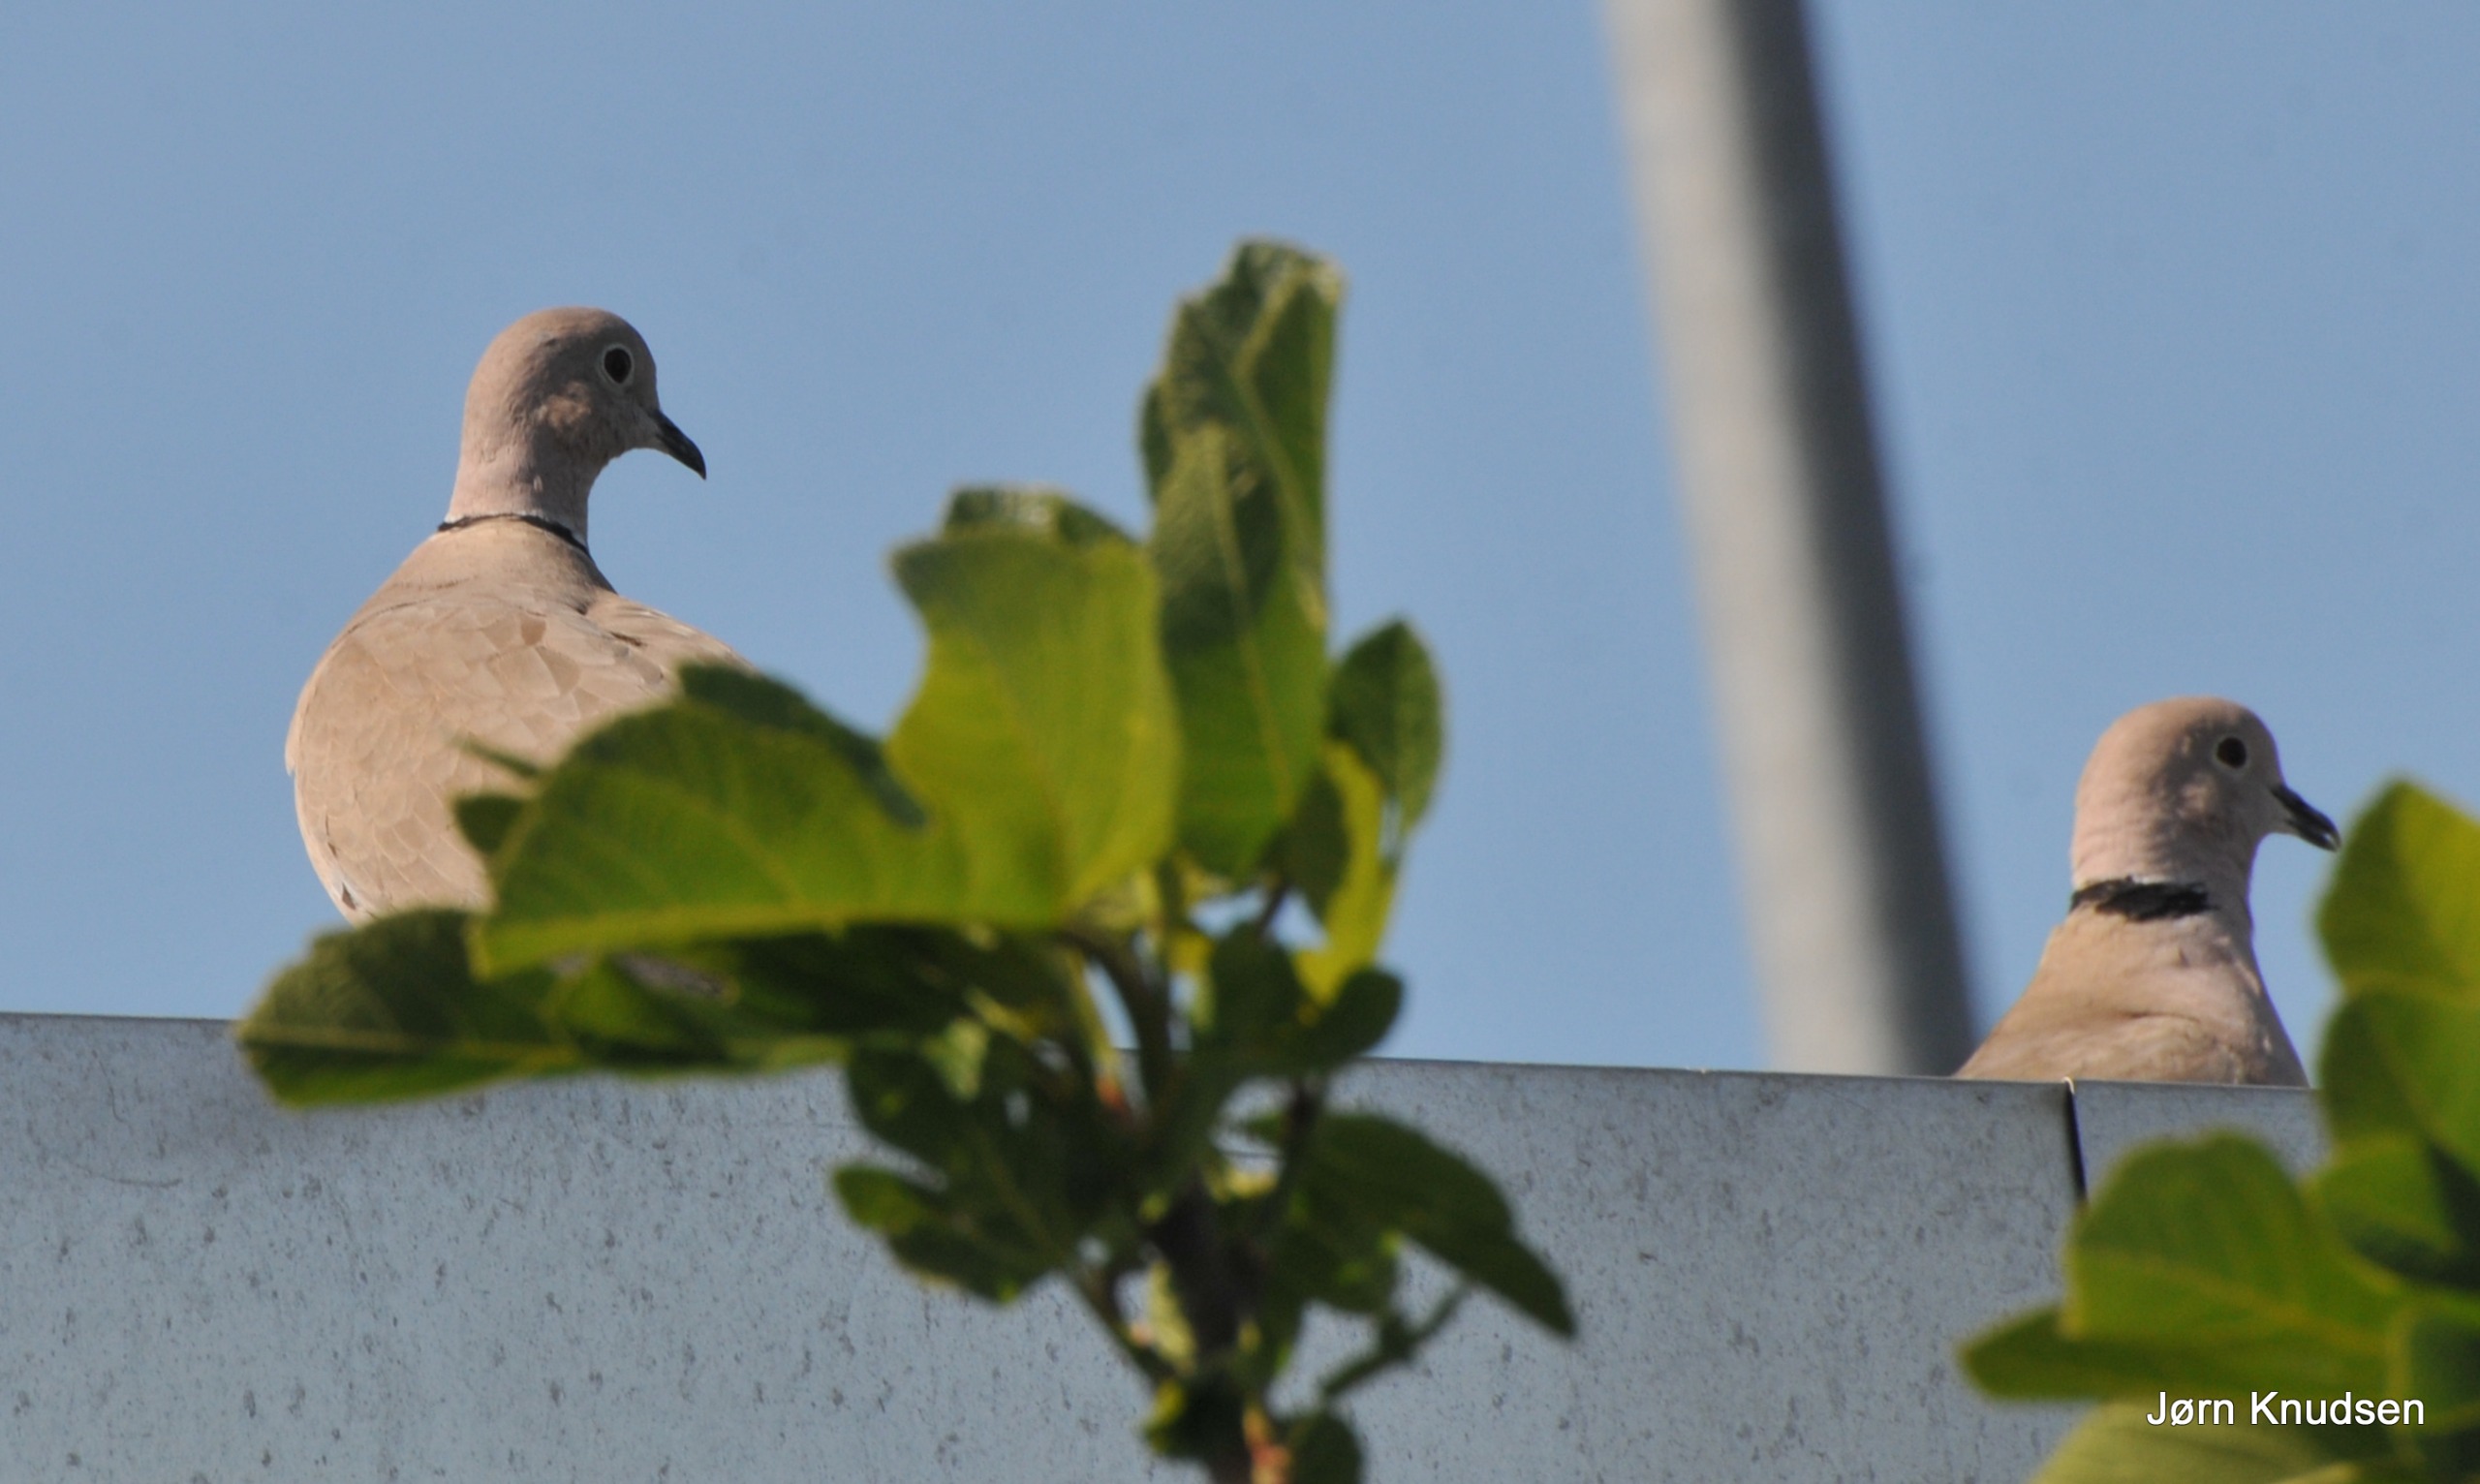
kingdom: Animalia
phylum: Chordata
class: Aves
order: Columbiformes
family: Columbidae
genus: Streptopelia
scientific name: Streptopelia decaocto
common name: Tyrkerdue
